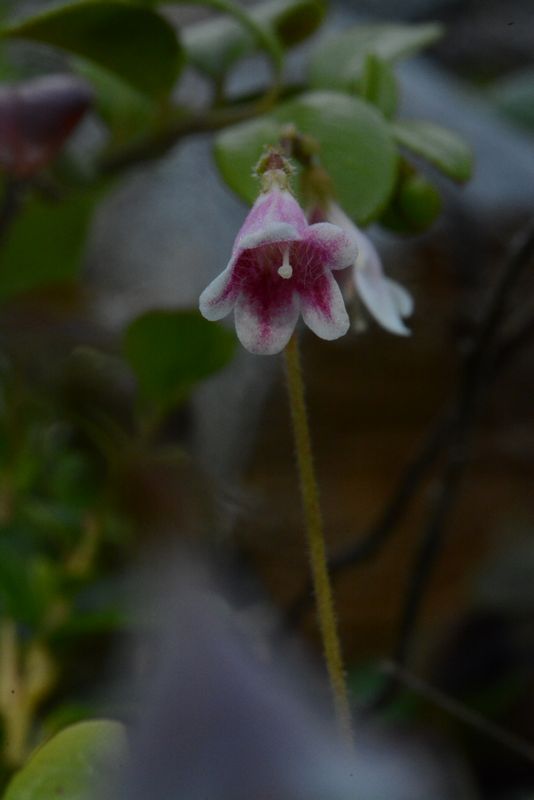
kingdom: Plantae
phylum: Tracheophyta
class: Magnoliopsida
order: Dipsacales
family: Caprifoliaceae
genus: Linnaea
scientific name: Linnaea borealis
